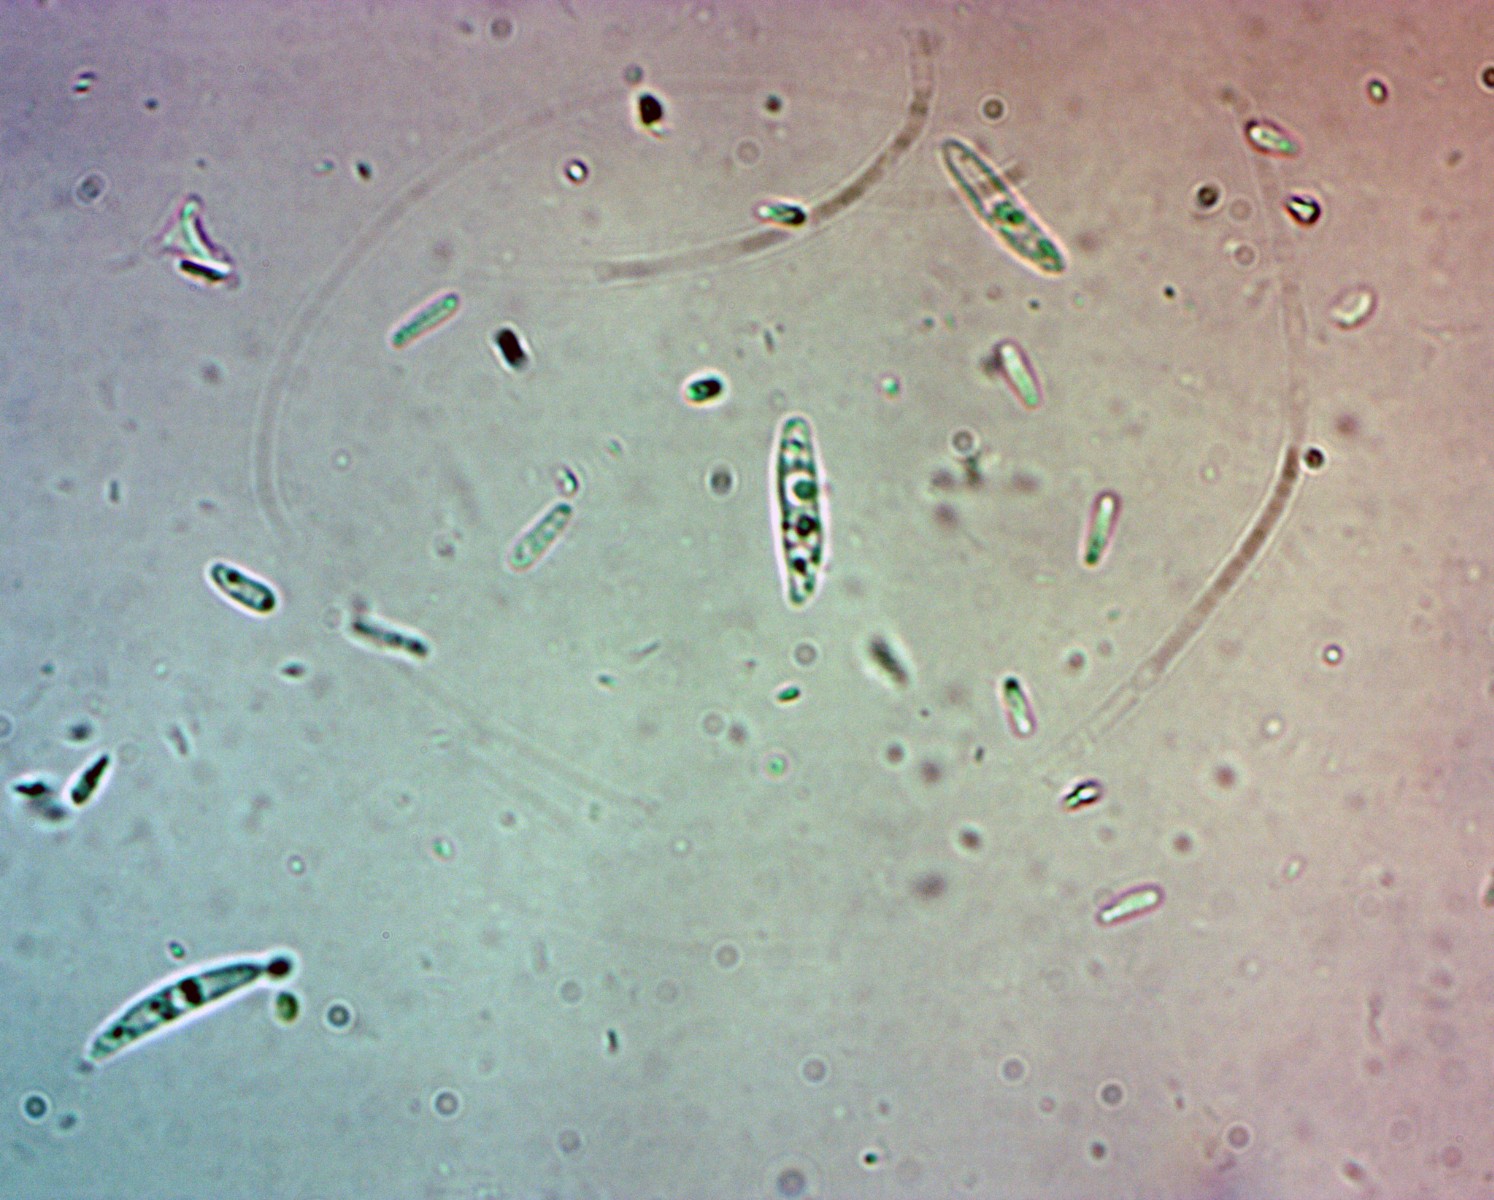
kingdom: Fungi
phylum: Ascomycota
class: Leotiomycetes
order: Helotiales
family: Pezizellaceae
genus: Calycina
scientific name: Calycina herbarum
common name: elfenbens-gulskive
